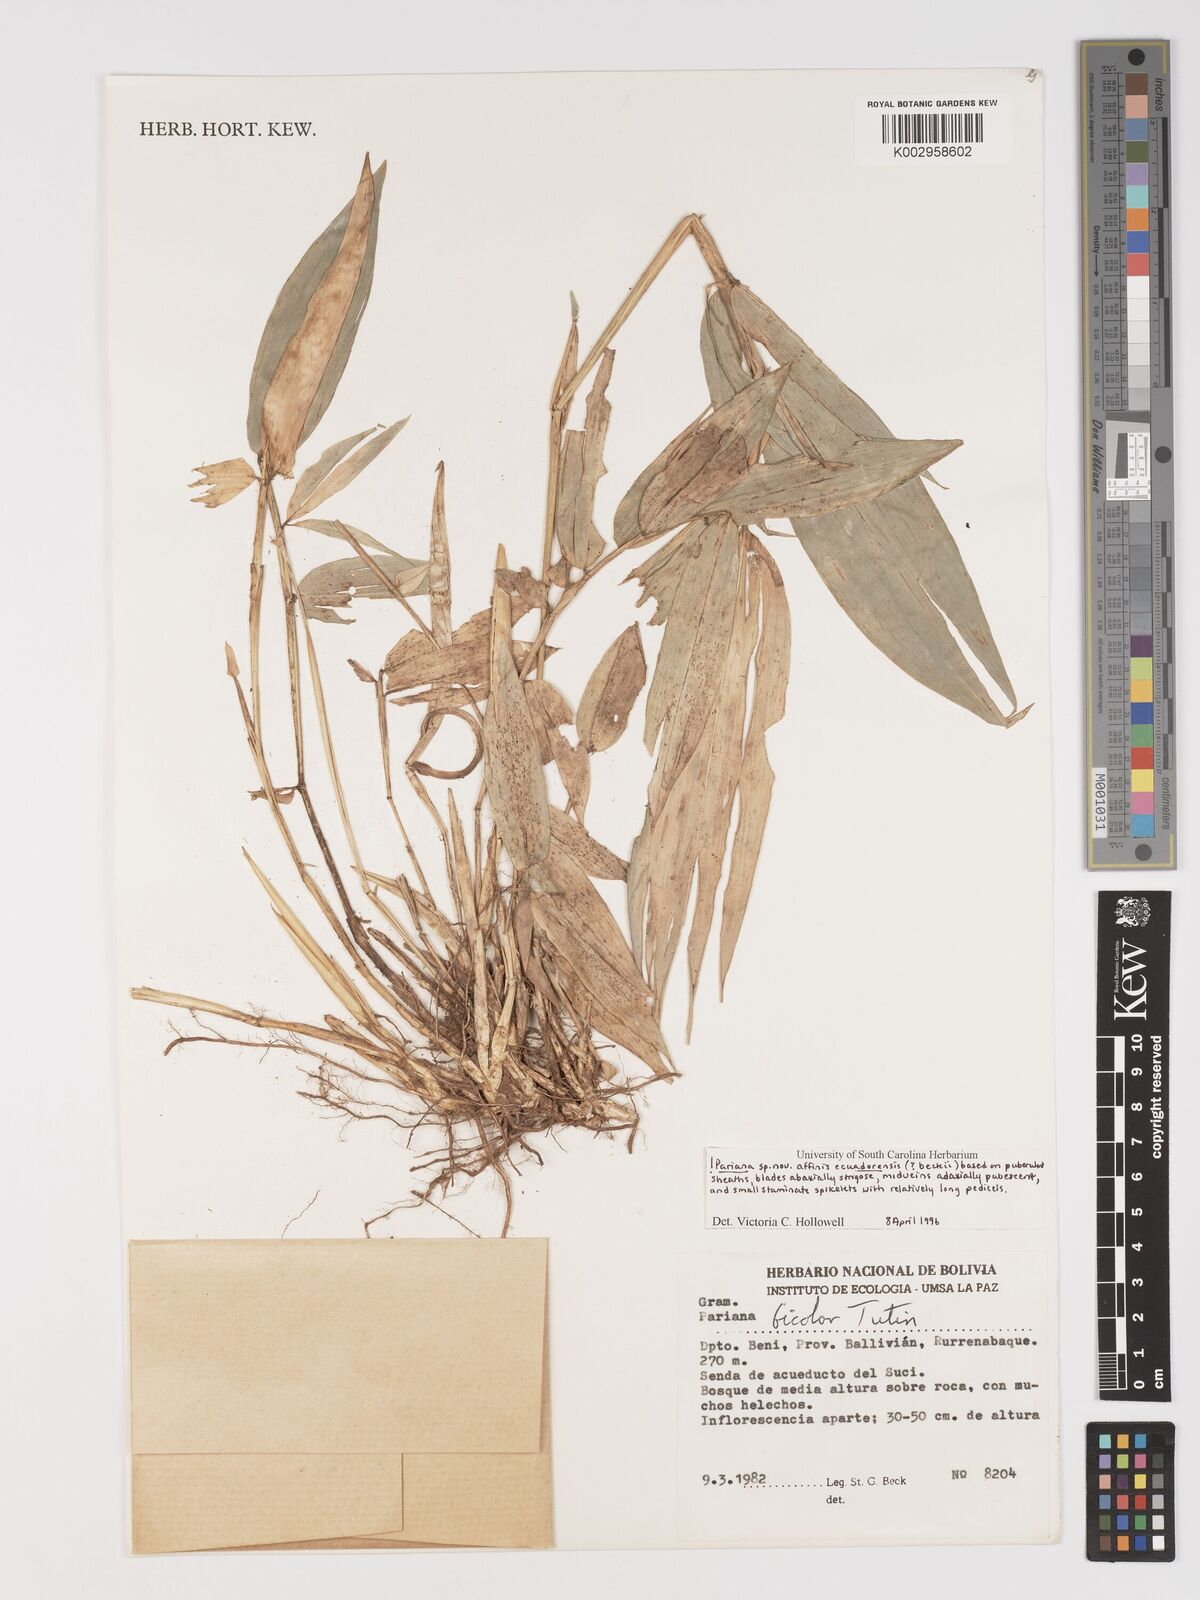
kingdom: Plantae
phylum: Tracheophyta
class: Liliopsida
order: Poales
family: Poaceae
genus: Pariana
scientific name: Pariana
